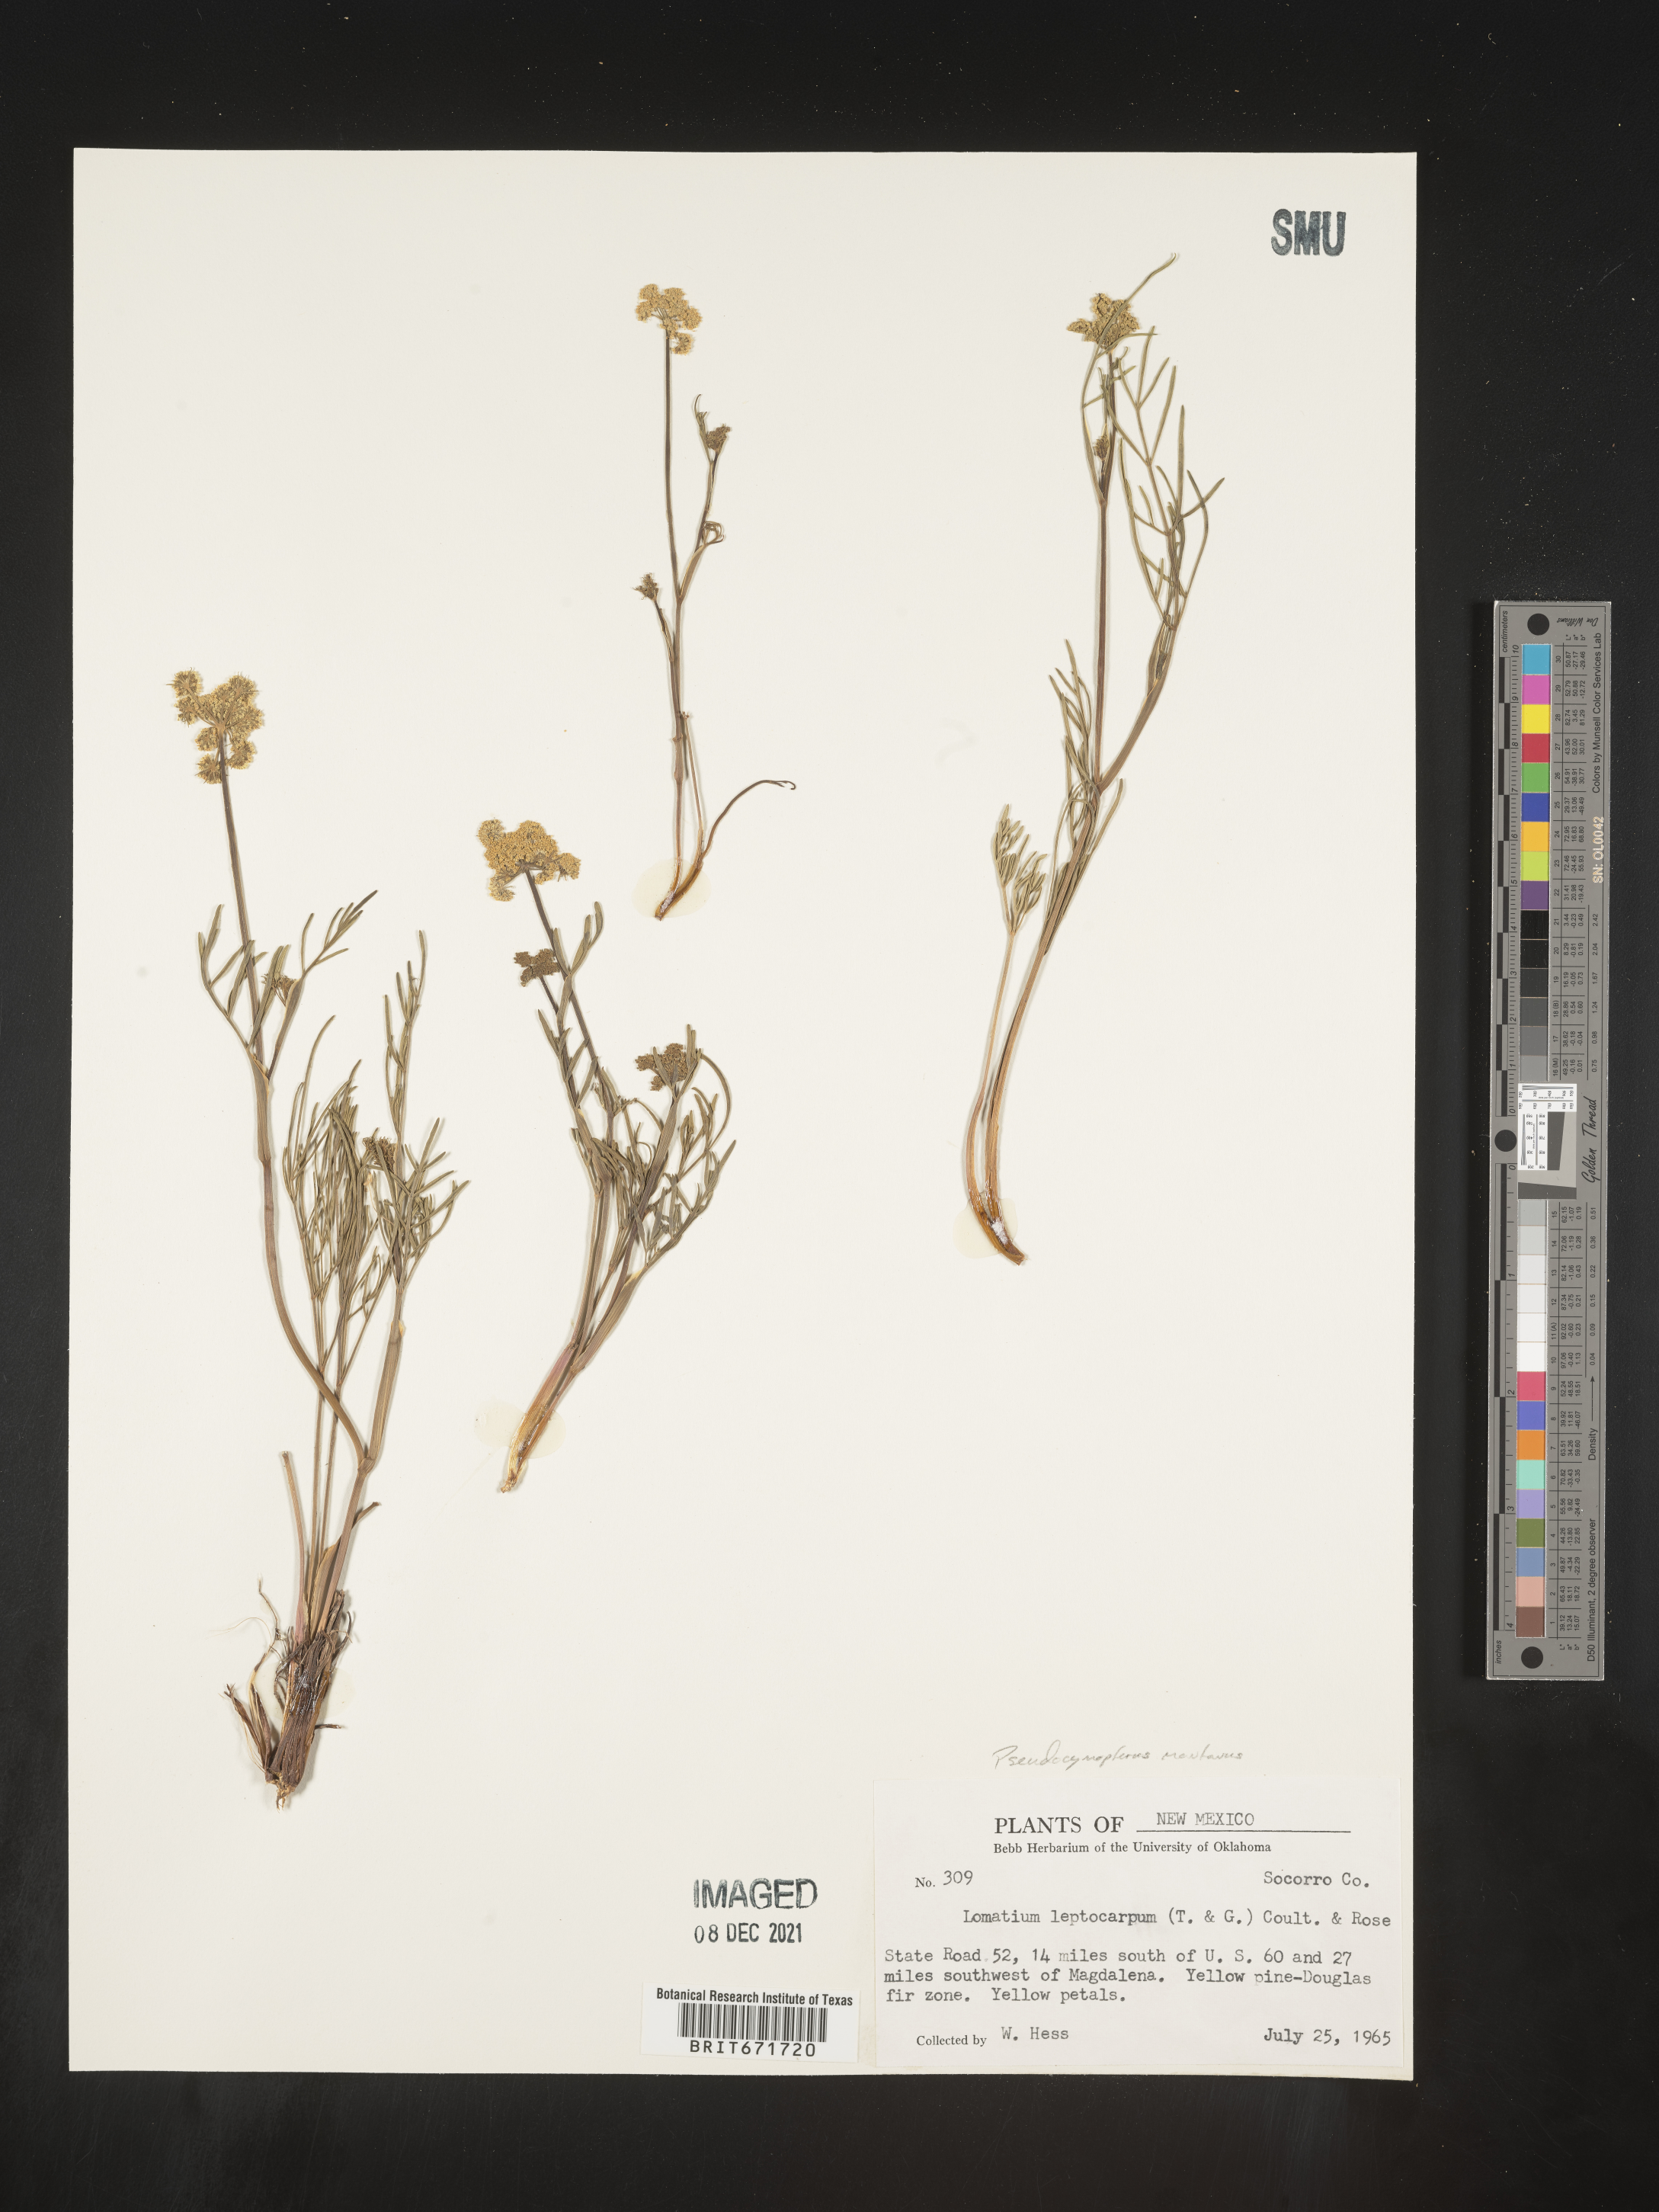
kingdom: Plantae
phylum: Tracheophyta
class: Magnoliopsida
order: Apiales
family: Apiaceae
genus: Cymopterus
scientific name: Cymopterus lemmonii
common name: Lemmon's spring-parsley
